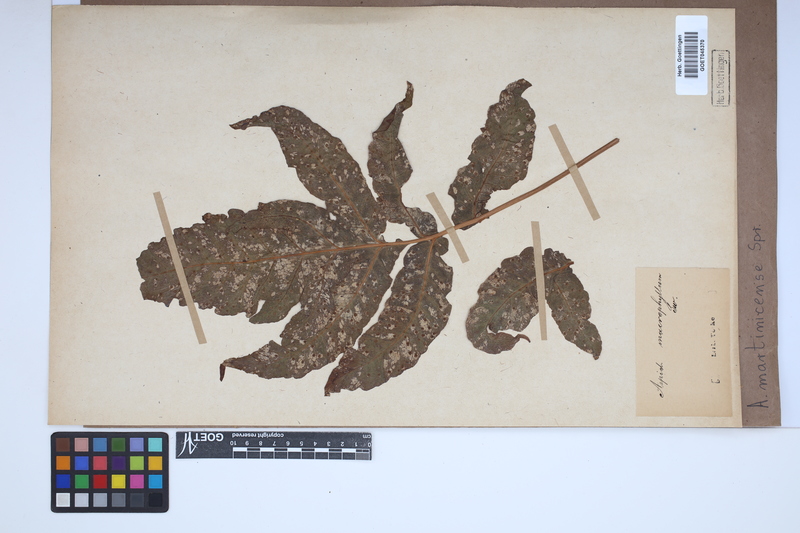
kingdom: Plantae
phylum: Tracheophyta
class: Polypodiopsida
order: Polypodiales
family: Tectariaceae
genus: Tectaria
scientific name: Tectaria incisa
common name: Incised halberd fern
